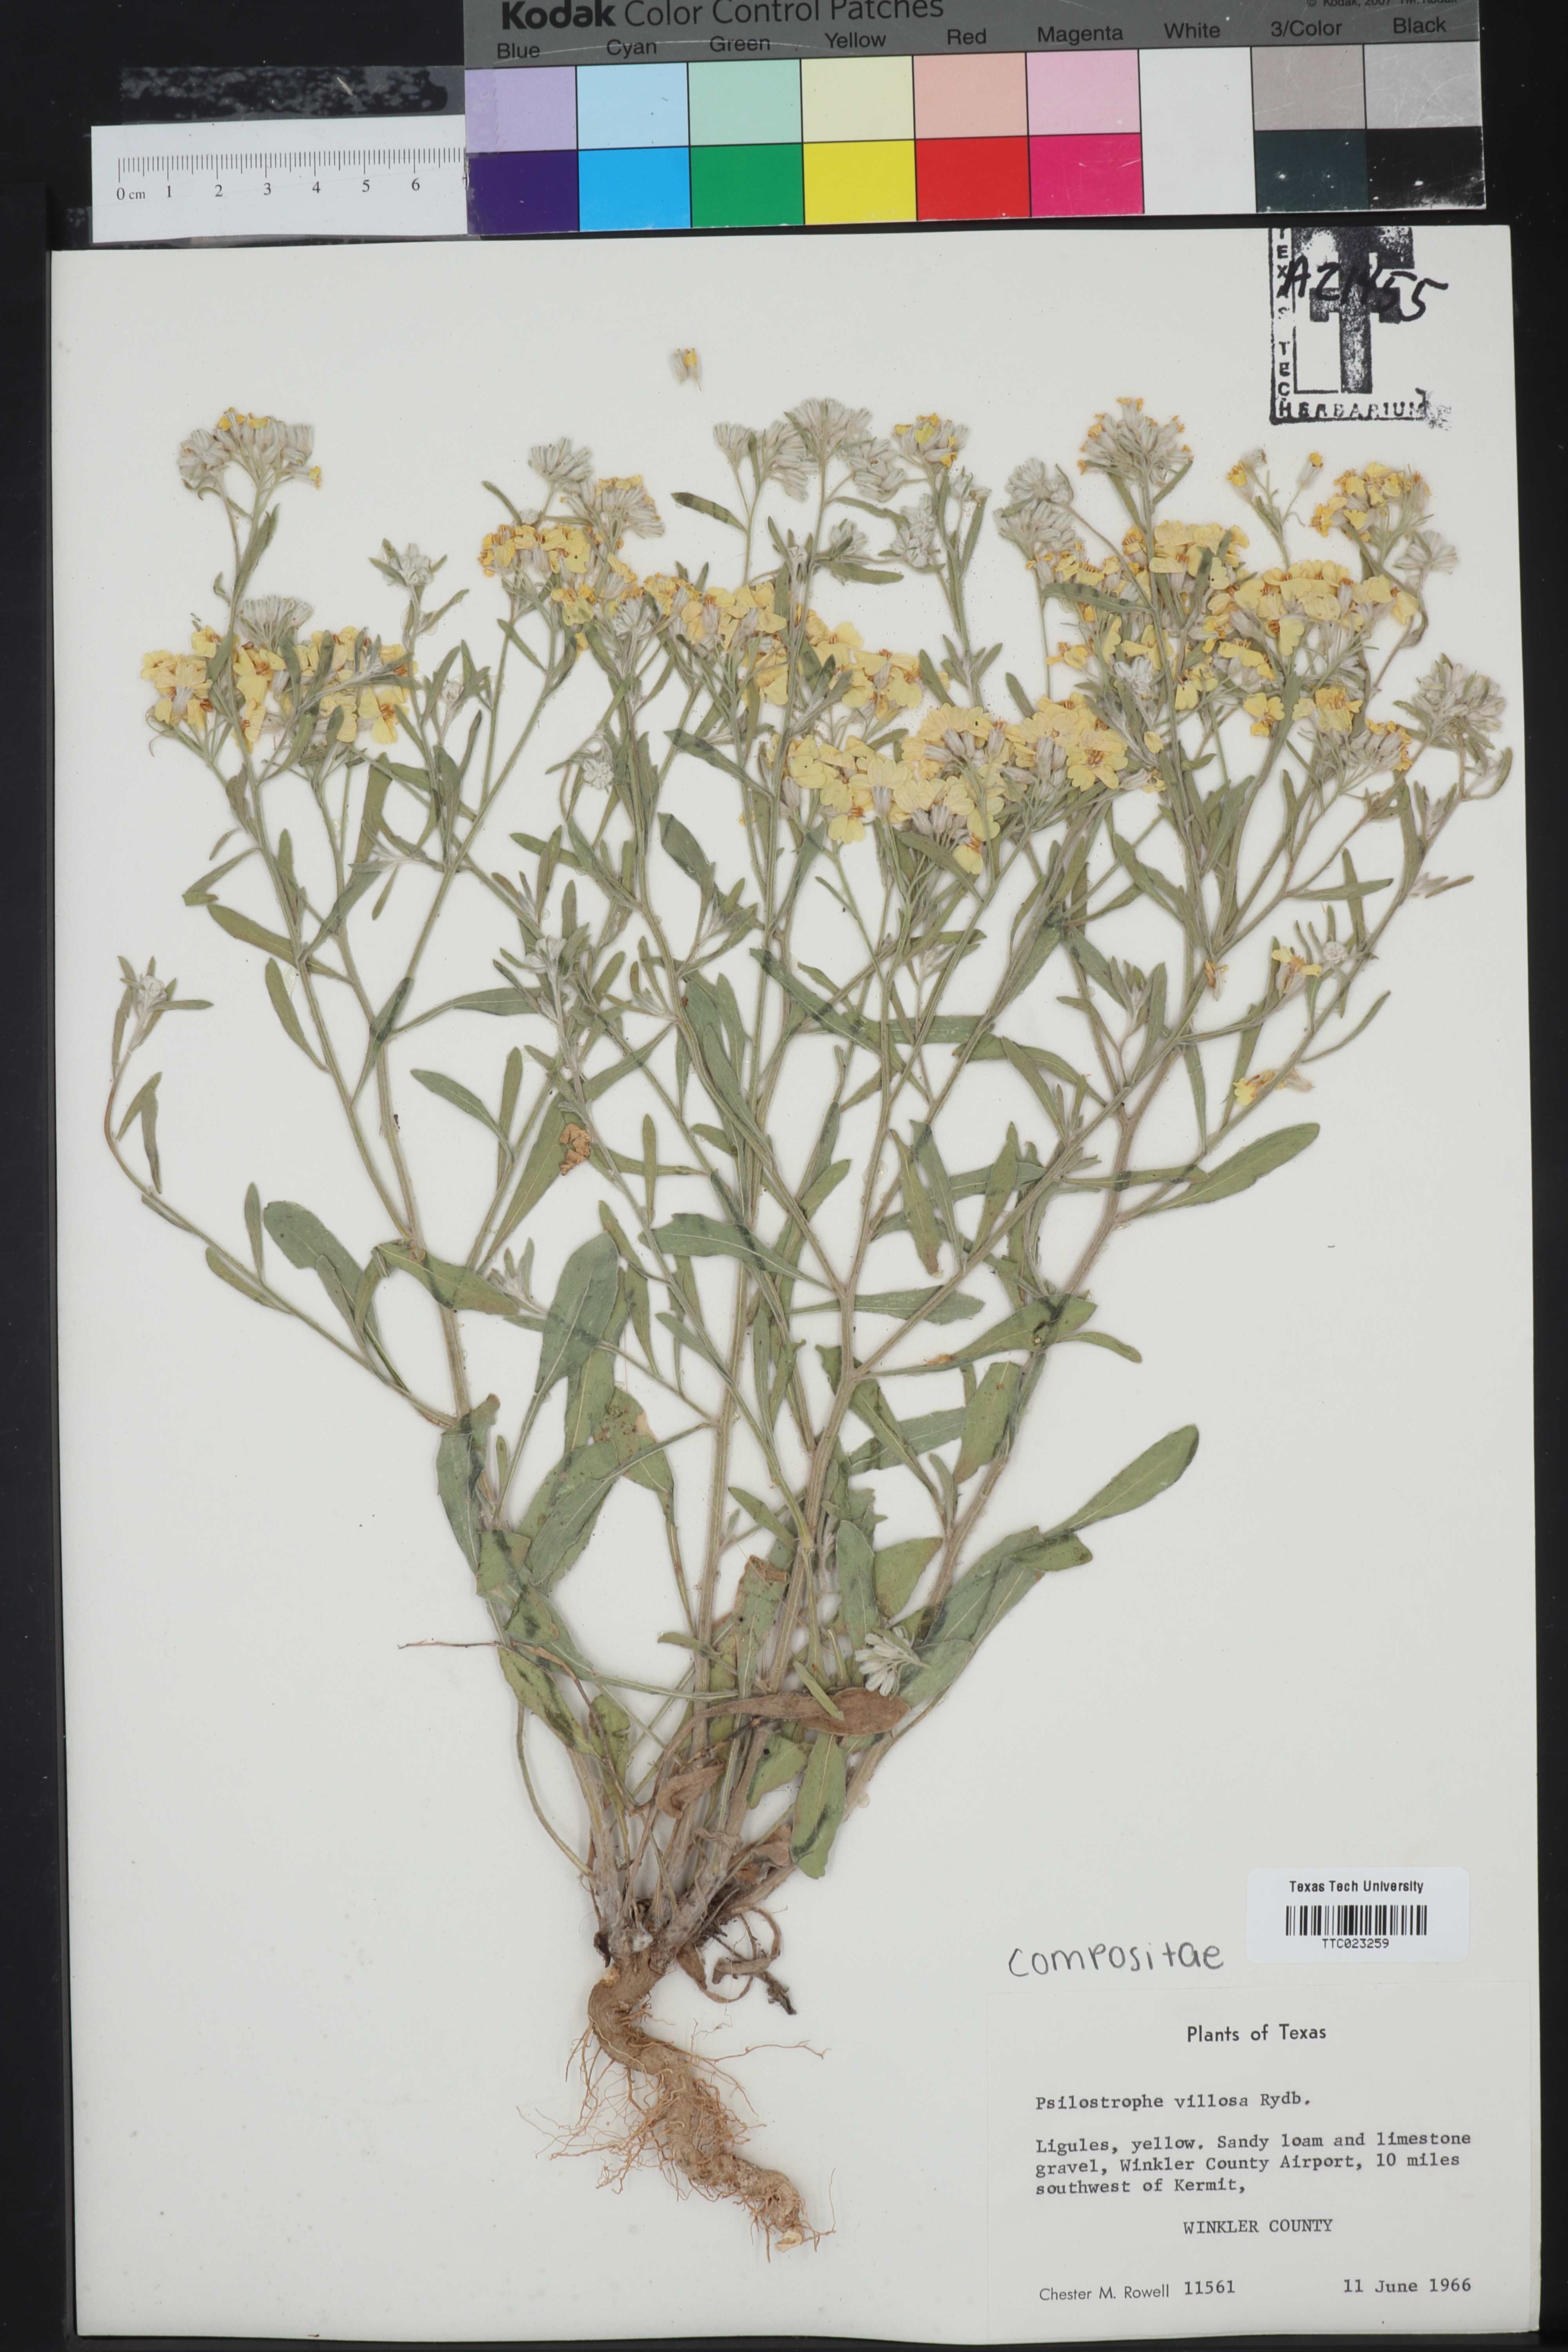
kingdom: Plantae
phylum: Tracheophyta
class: Magnoliopsida
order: Asterales
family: Asteraceae
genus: Psilostrophe
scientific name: Psilostrophe villosa
